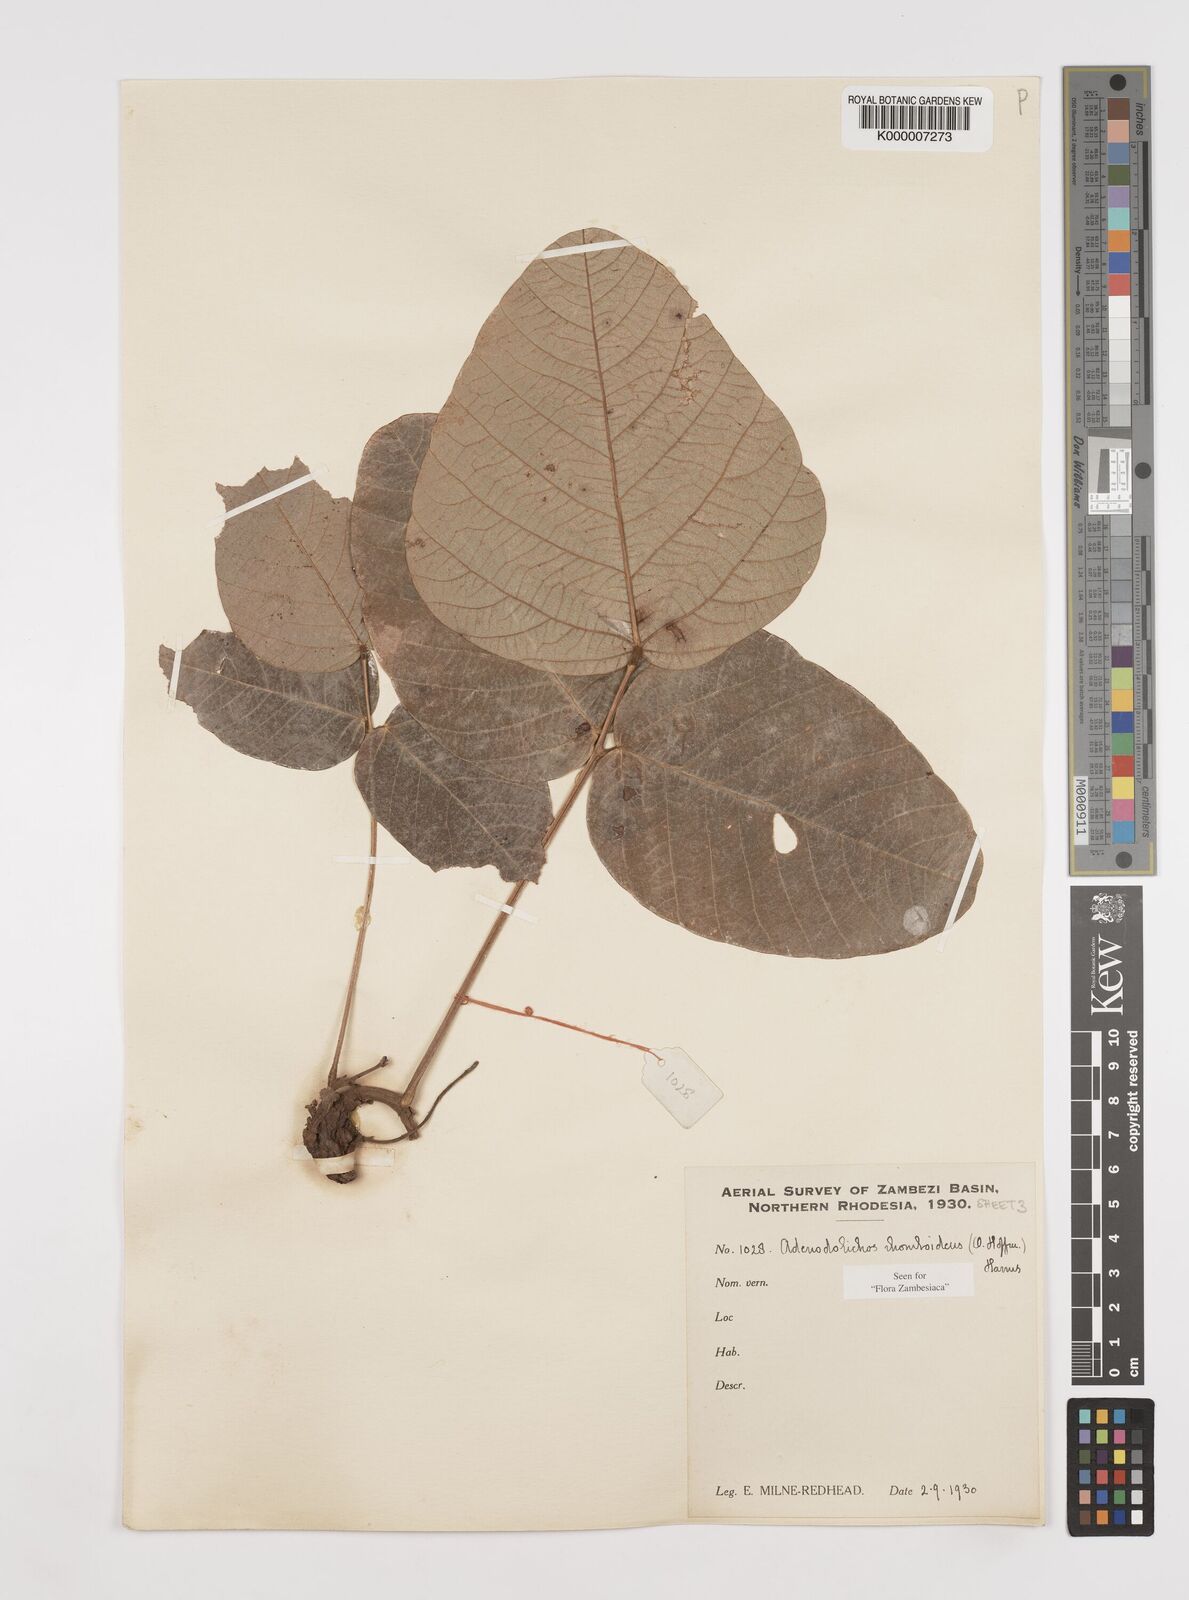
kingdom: Plantae
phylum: Tracheophyta
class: Magnoliopsida
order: Fabales
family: Fabaceae
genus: Adenodolichos
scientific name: Adenodolichos rhomboideus
